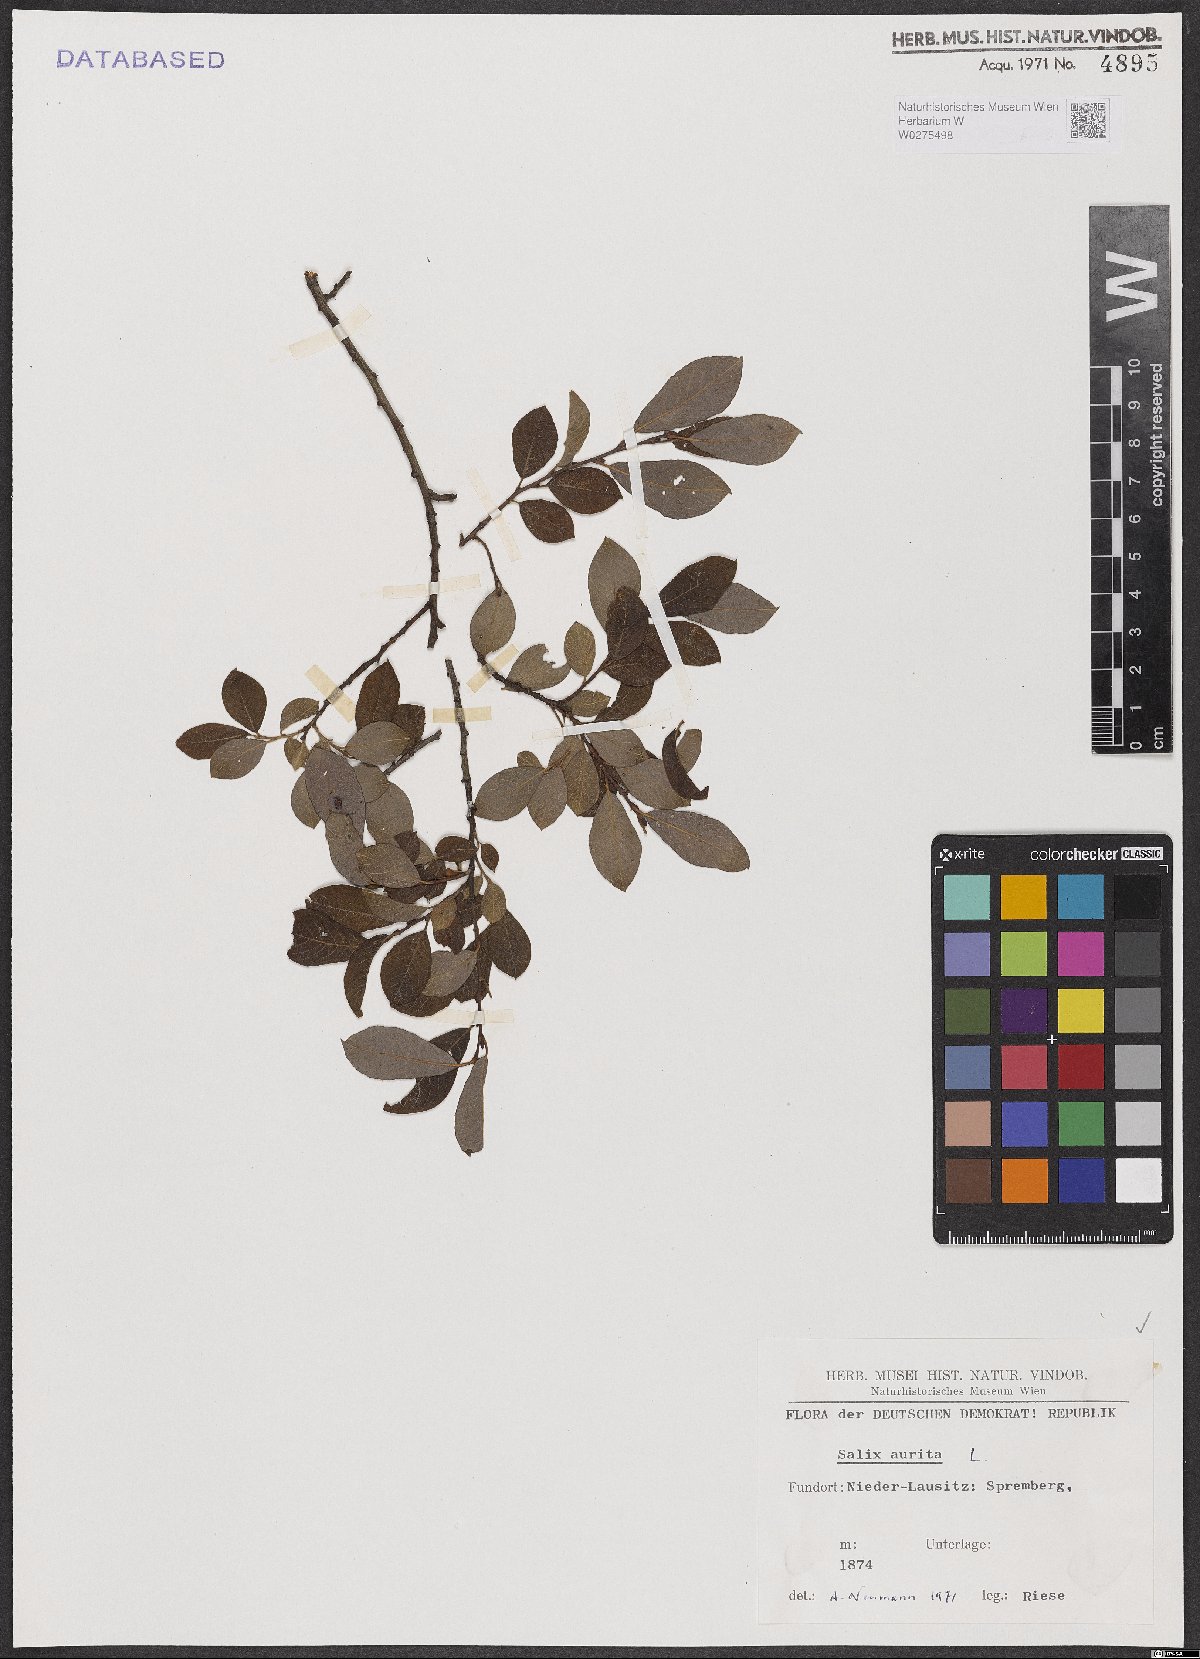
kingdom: Plantae
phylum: Tracheophyta
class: Magnoliopsida
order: Malpighiales
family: Salicaceae
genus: Salix
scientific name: Salix aurita
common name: Eared willow
